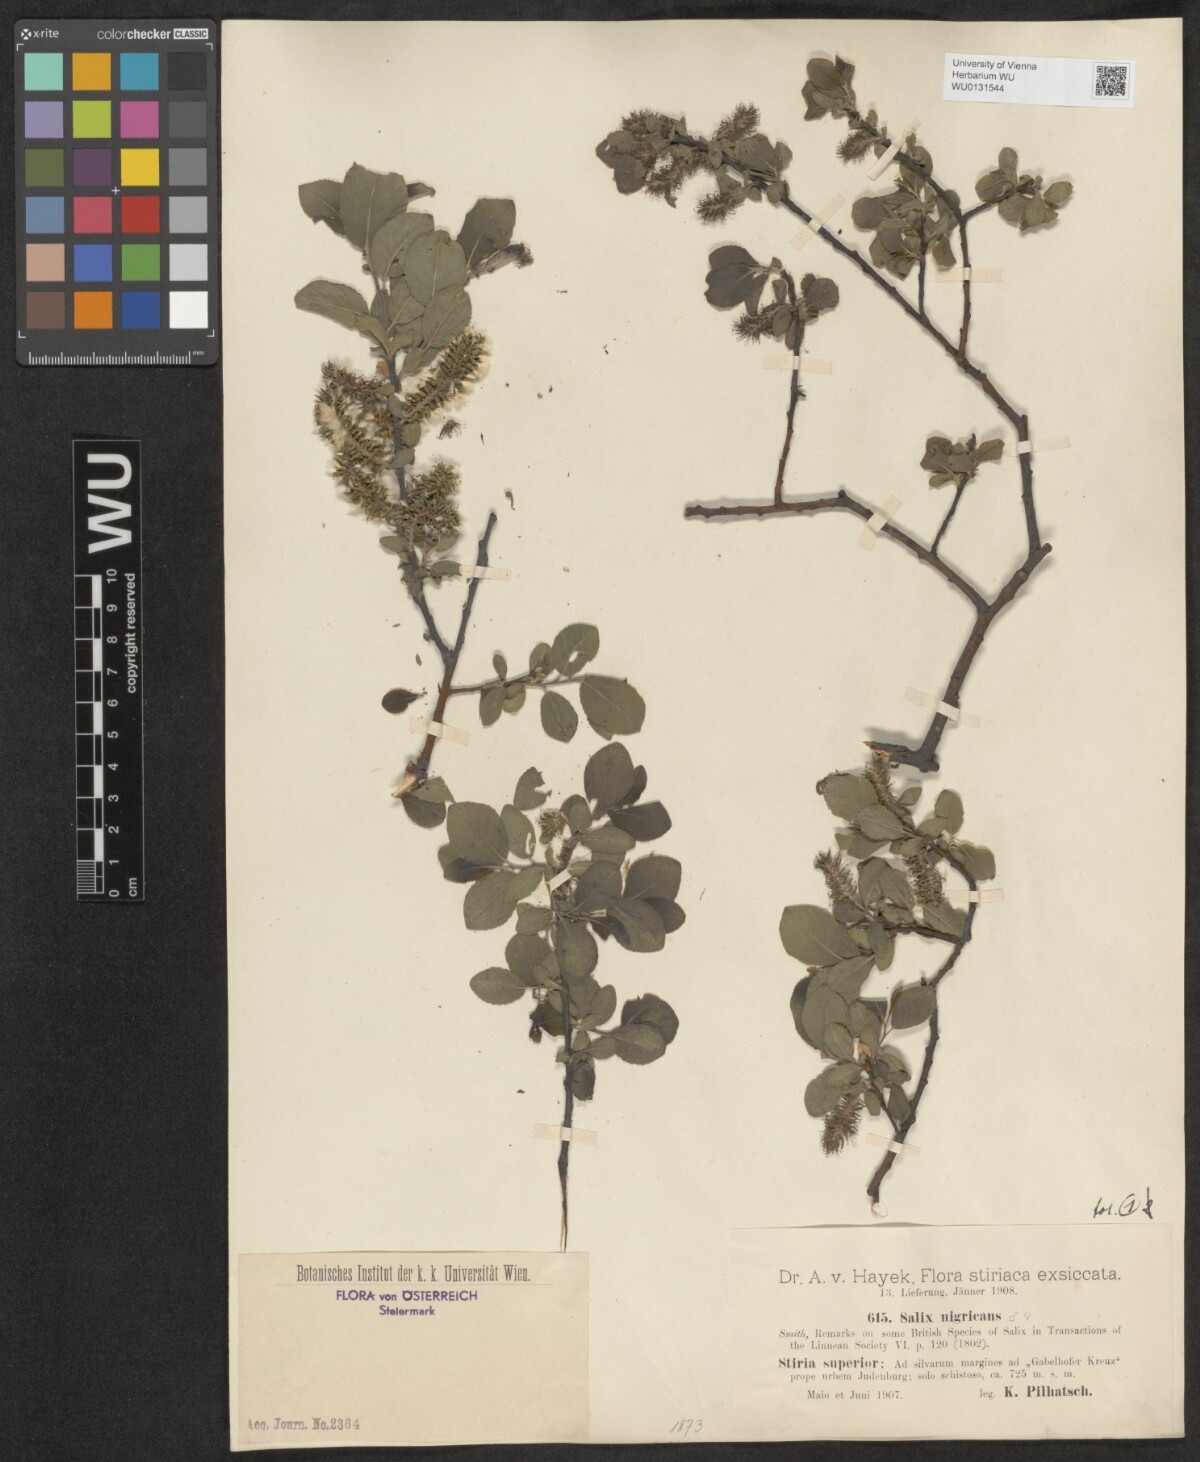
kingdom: Plantae
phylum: Tracheophyta
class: Magnoliopsida
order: Malpighiales
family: Salicaceae
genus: Salix
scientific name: Salix myrsinifolia
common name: Dark-leaved willow
